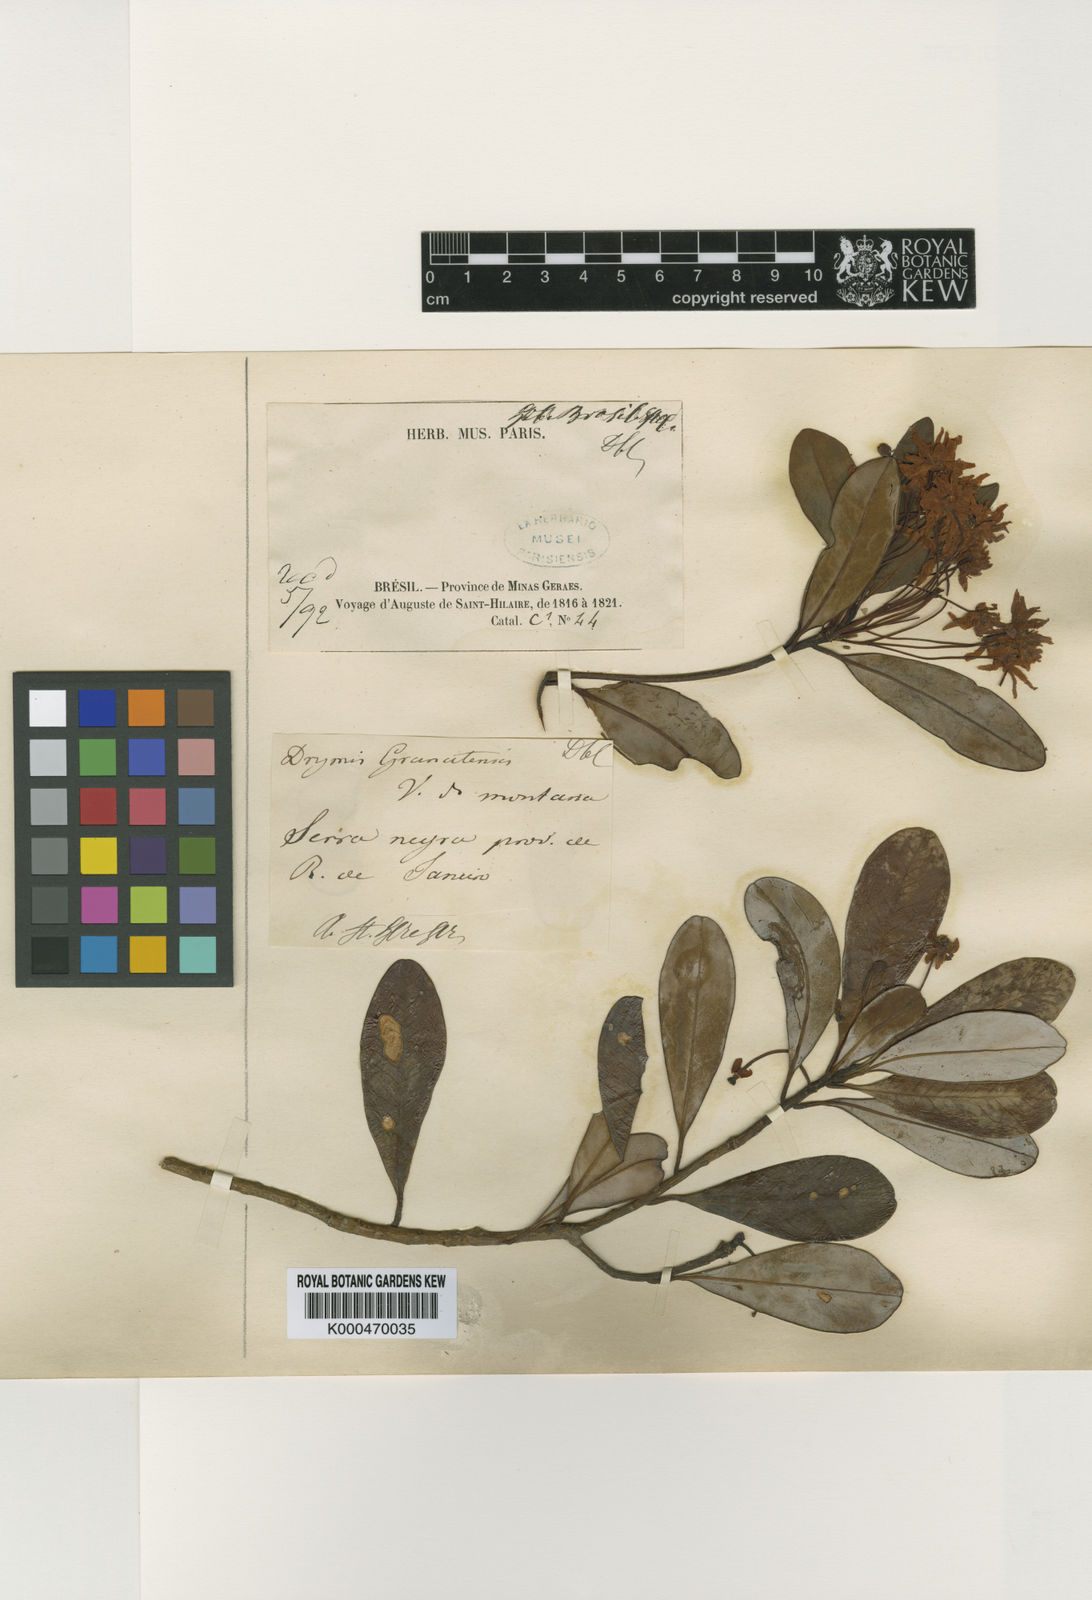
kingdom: Plantae
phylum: Tracheophyta
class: Magnoliopsida
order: Canellales
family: Winteraceae
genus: Drimys
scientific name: Drimys
